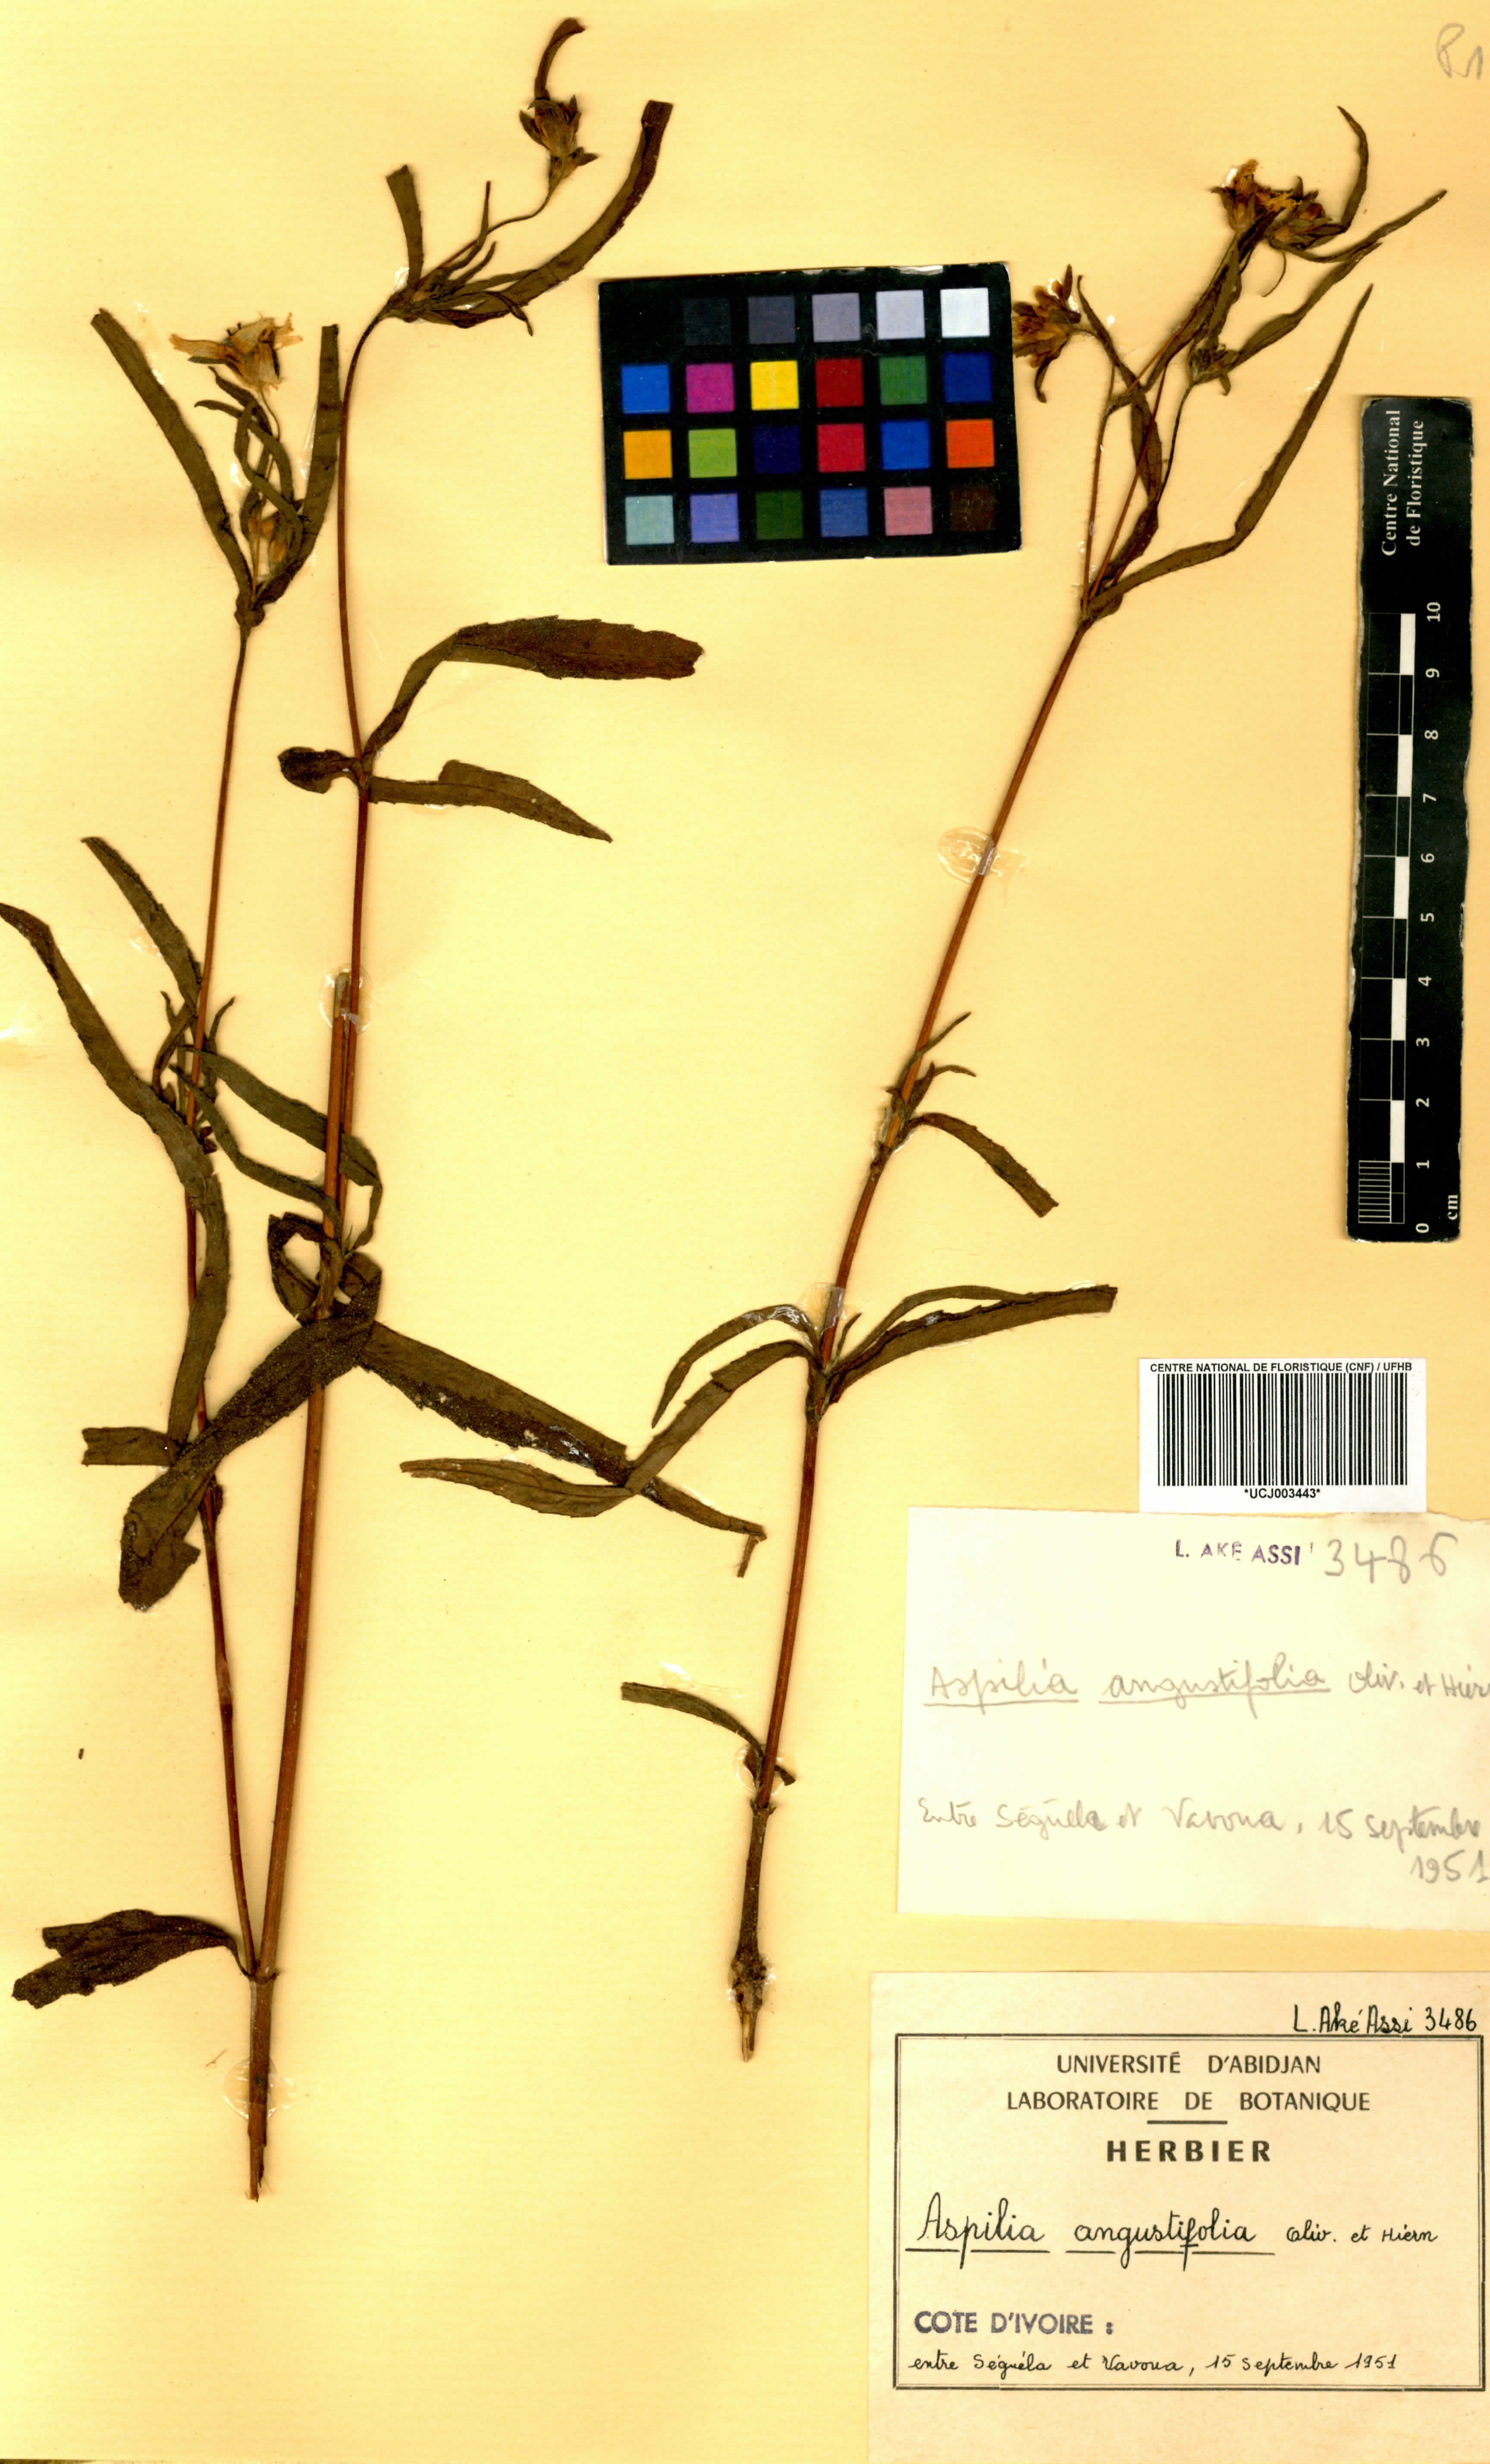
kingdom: Plantae
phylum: Tracheophyta
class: Magnoliopsida
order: Asterales
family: Asteraceae
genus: Aspilia
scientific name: Aspilia angustifolia
